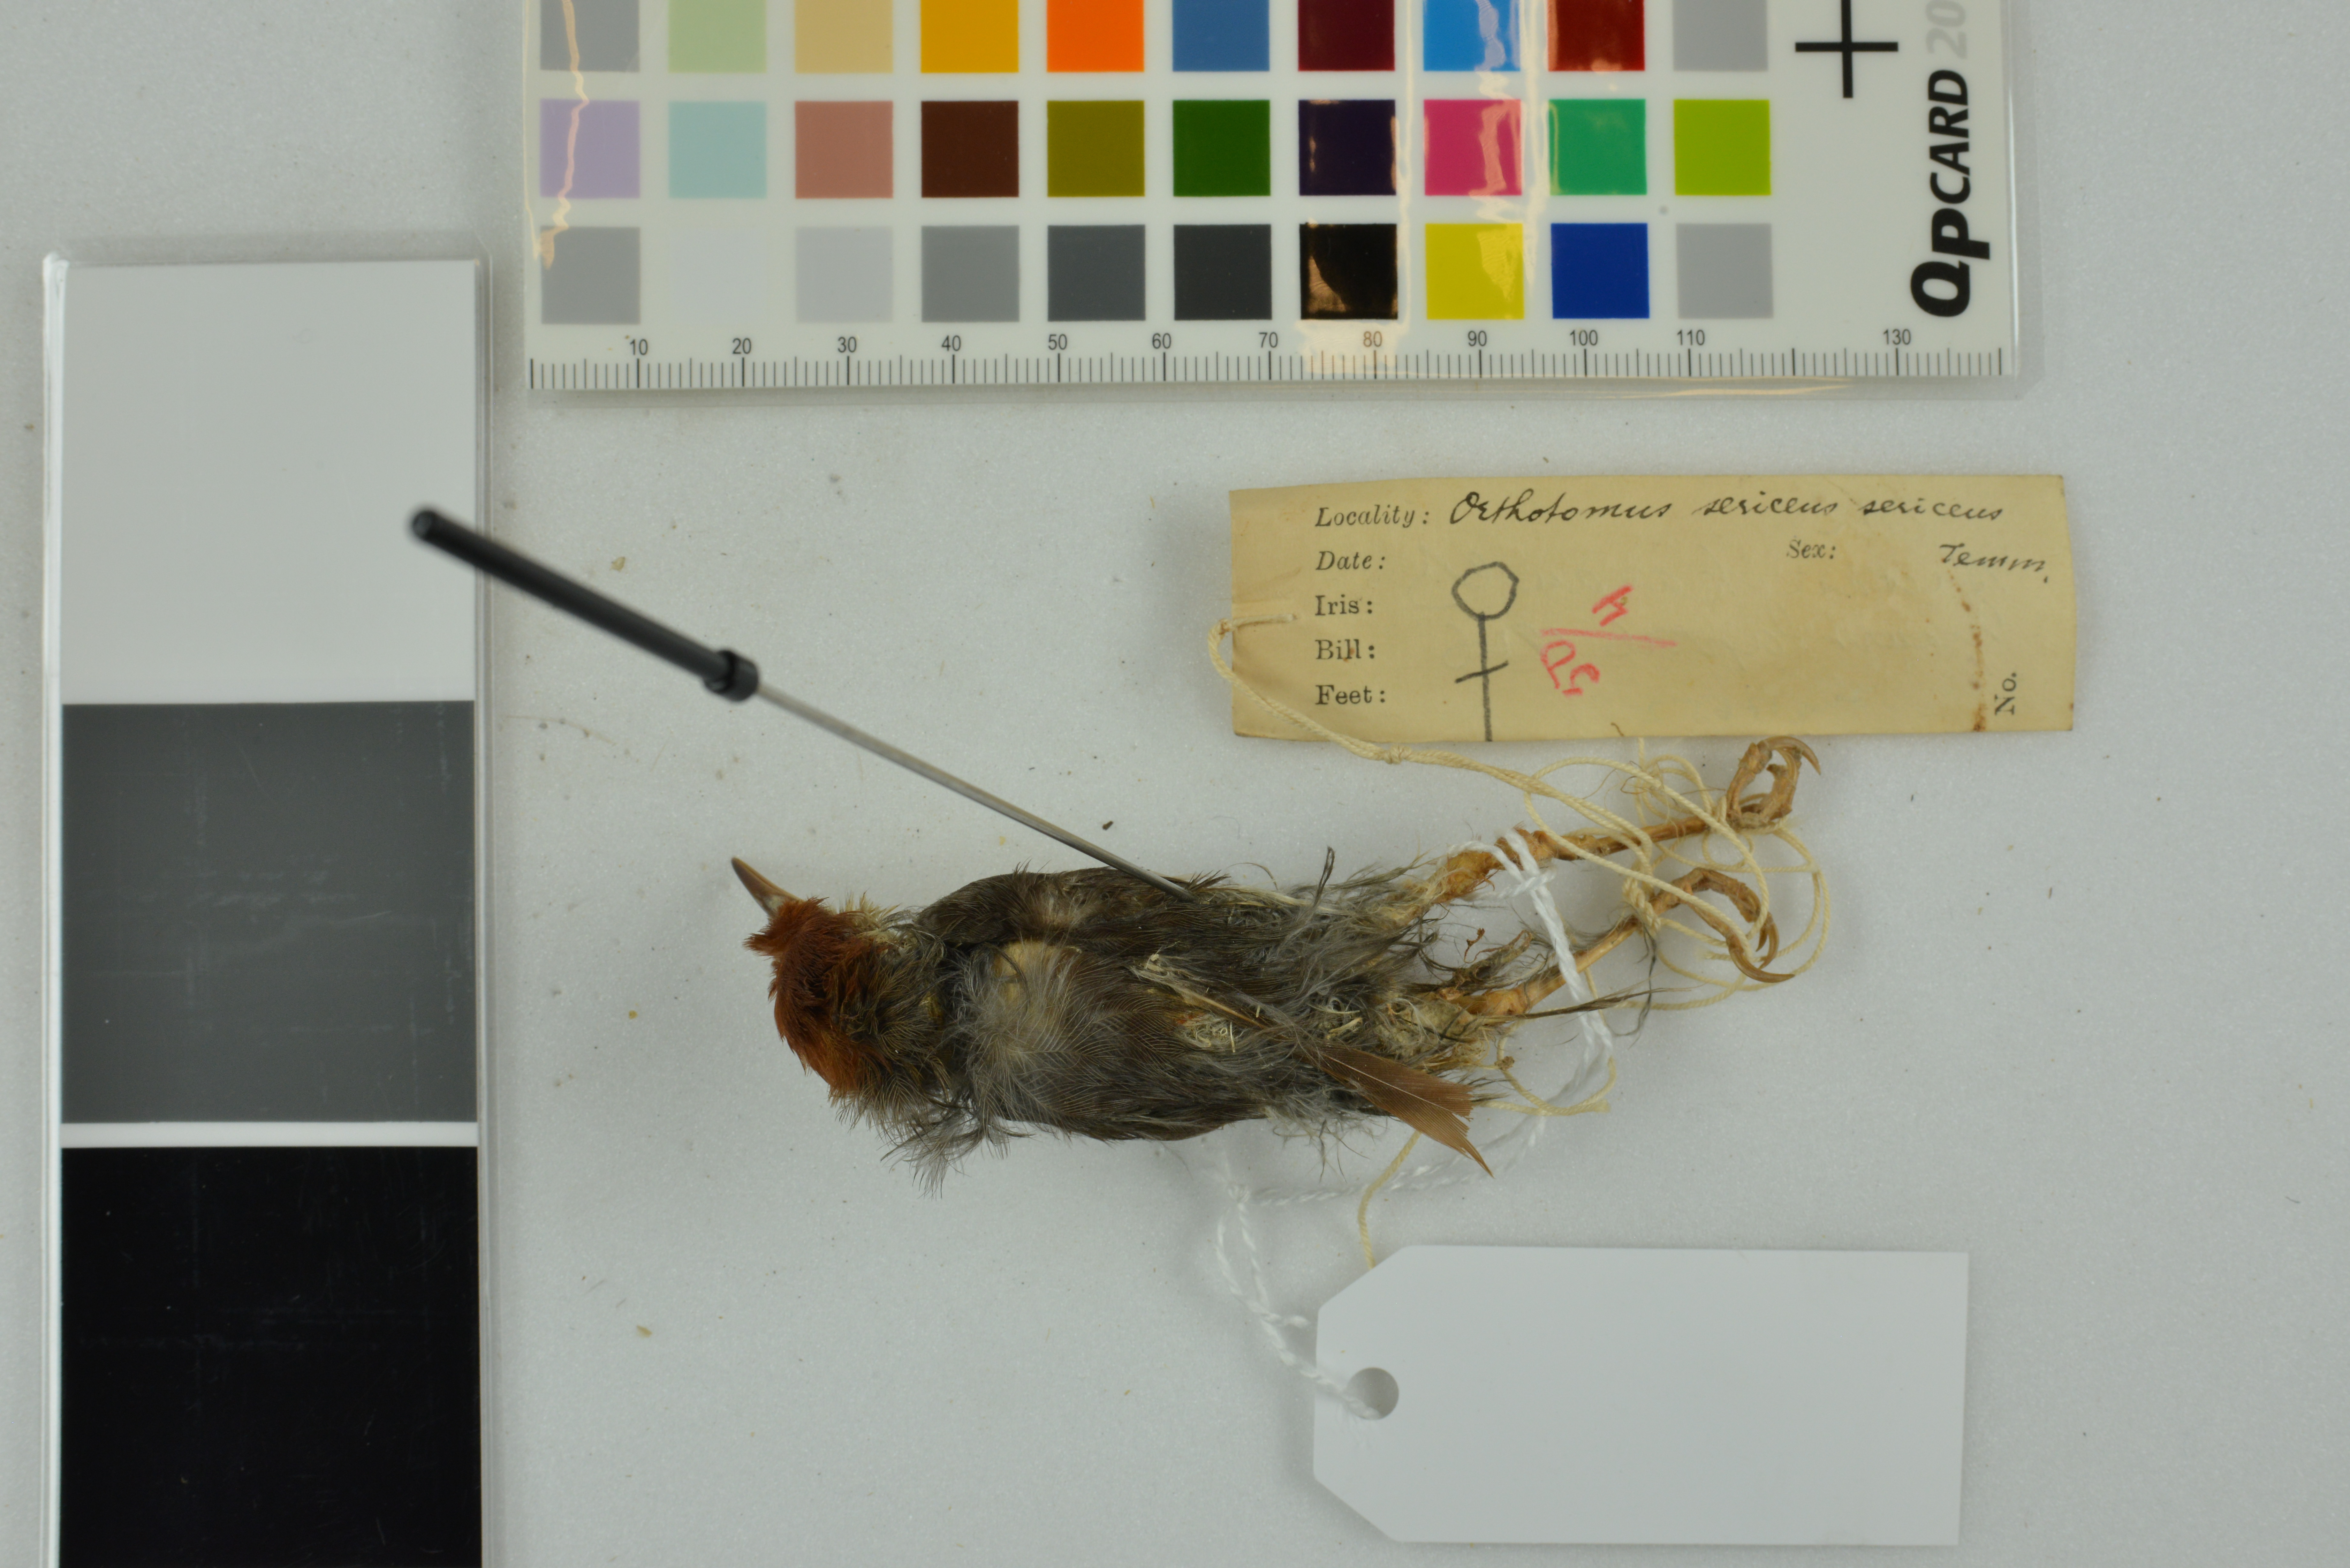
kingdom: Animalia
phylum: Chordata
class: Aves
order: Passeriformes
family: Cisticolidae
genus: Orthotomus
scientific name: Orthotomus sericeus
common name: Rufous-tailed tailorbird
